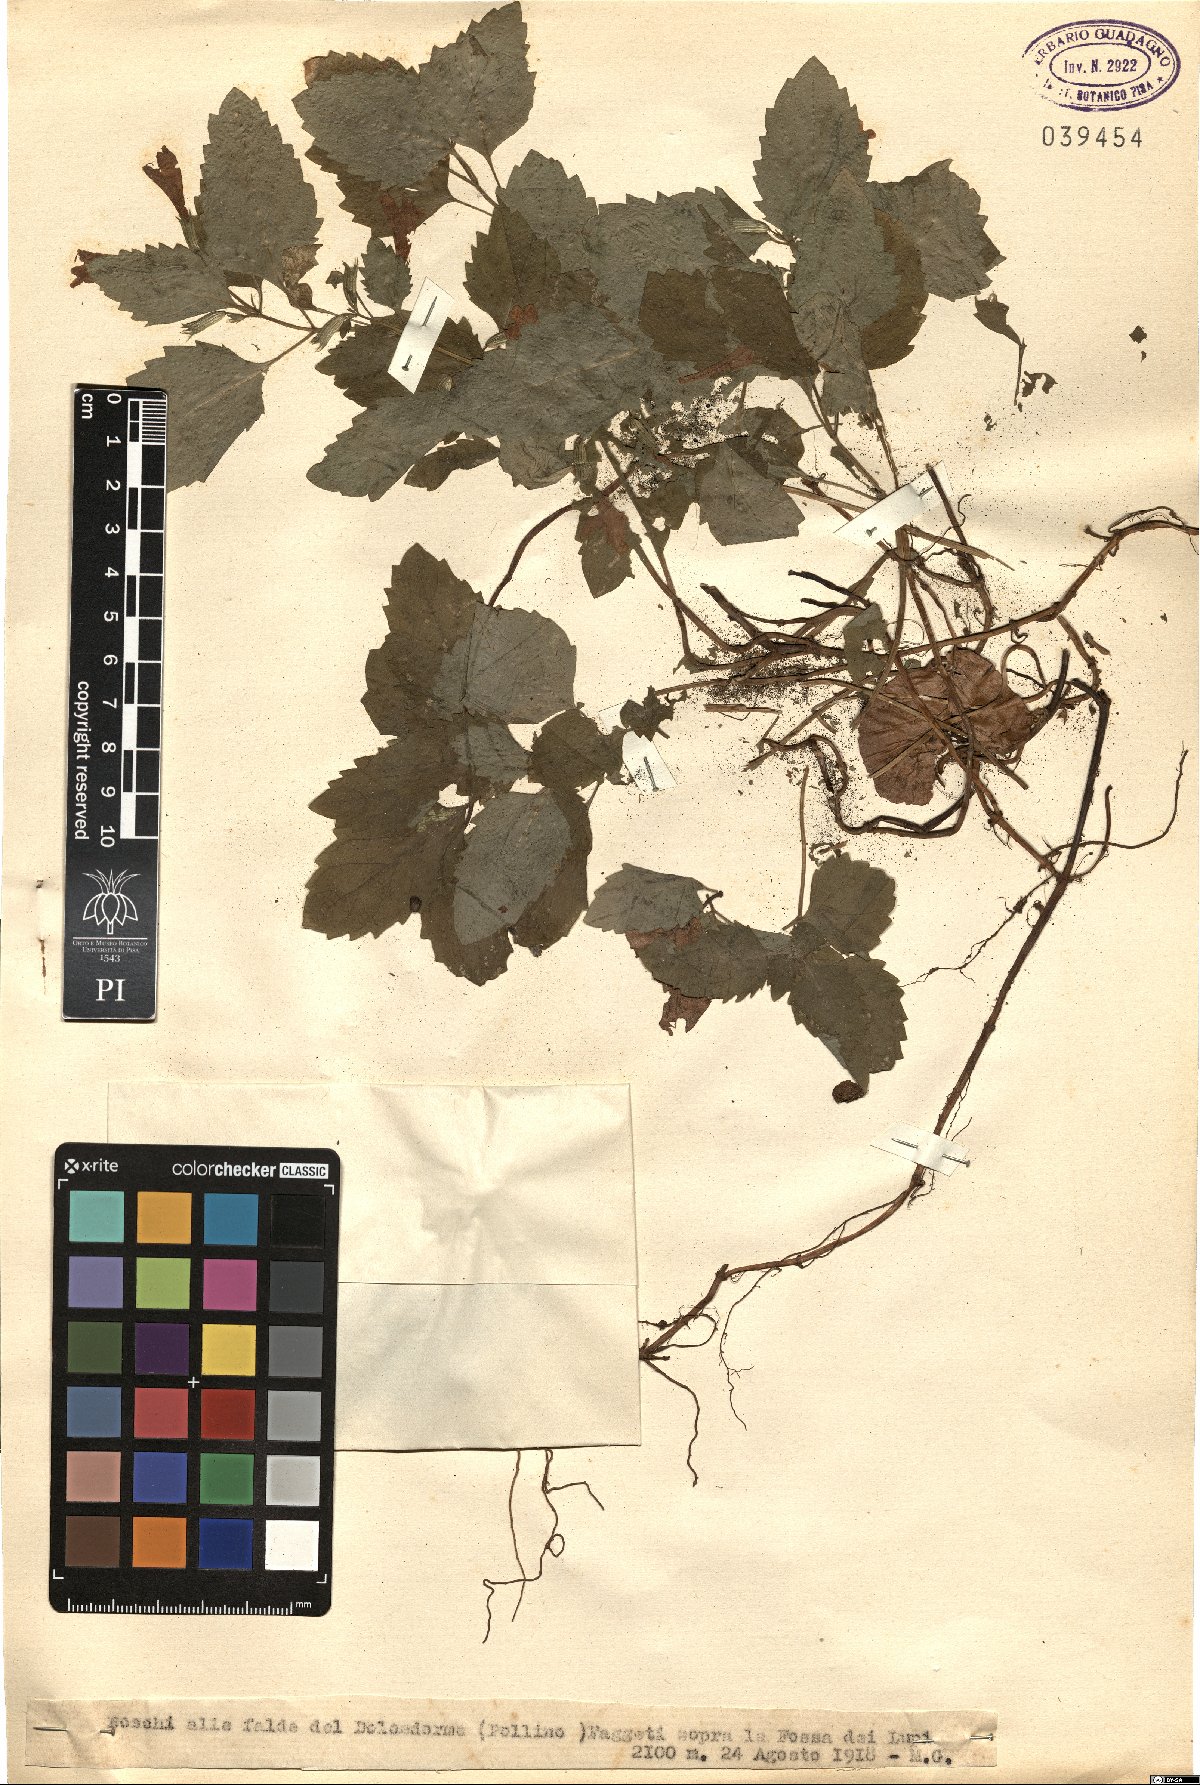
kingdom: Plantae
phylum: Tracheophyta
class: Magnoliopsida
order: Lamiales
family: Lamiaceae
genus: Calamintha
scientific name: Calamintha
